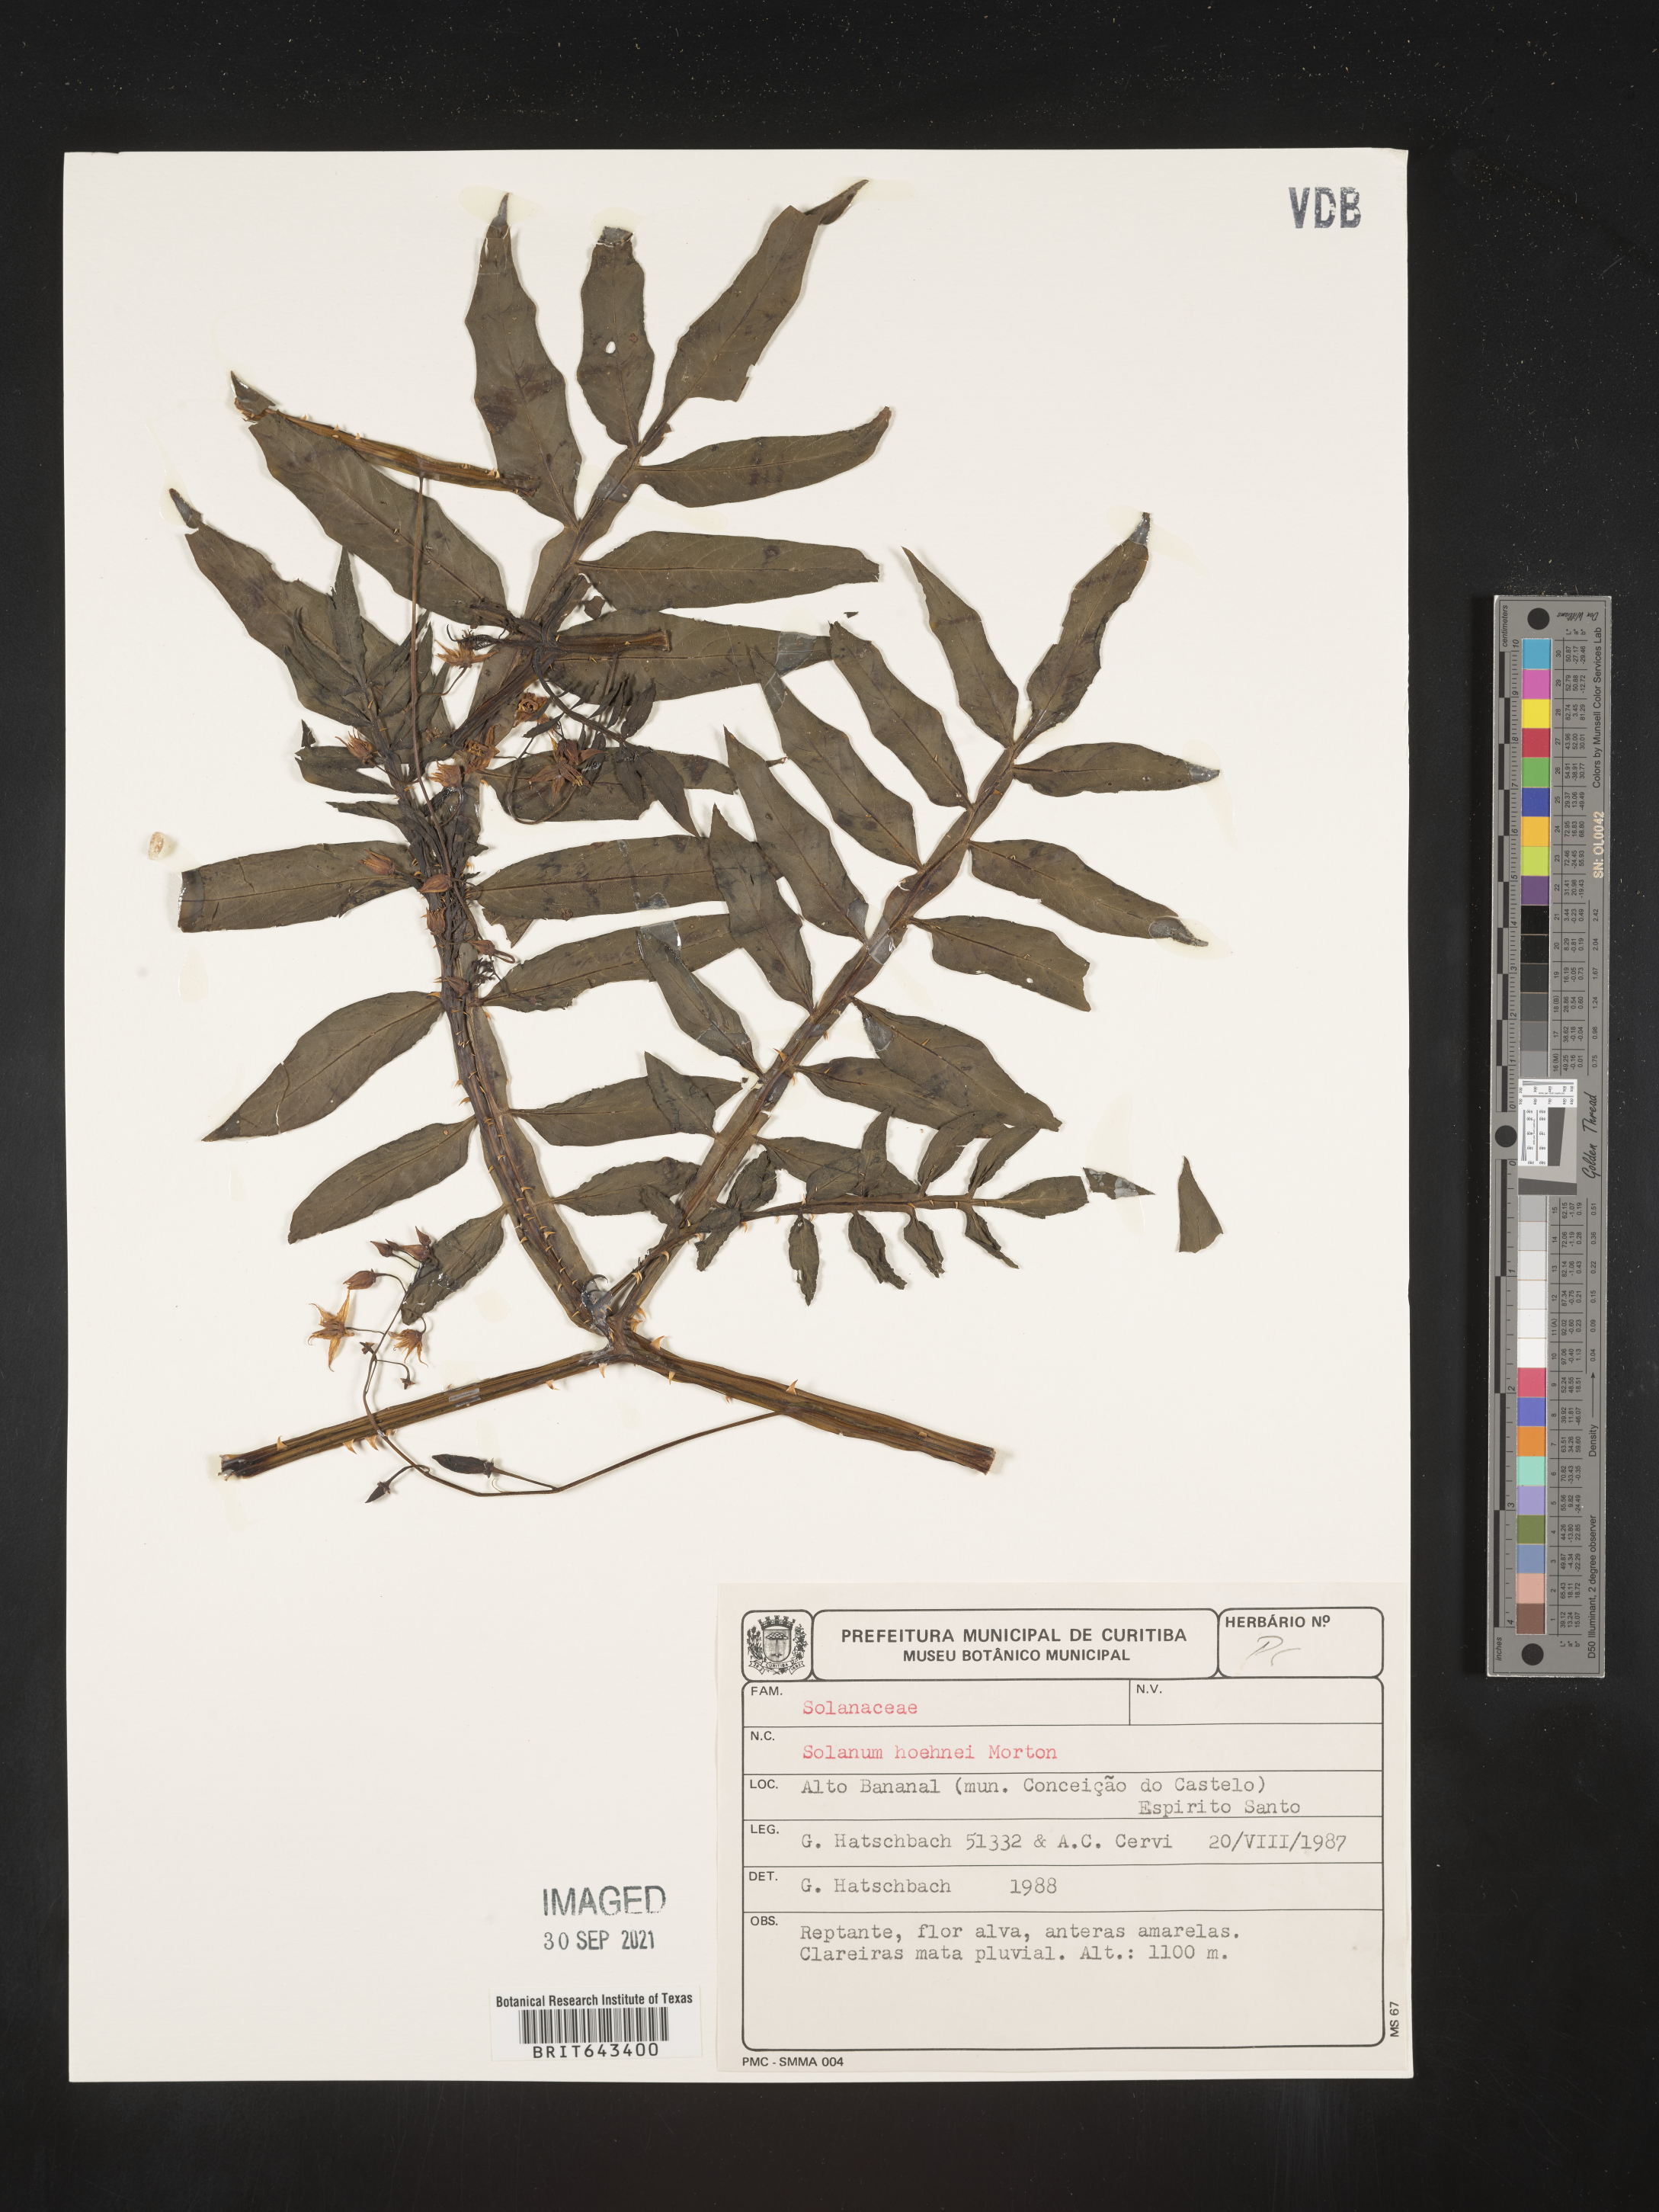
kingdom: Plantae
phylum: Tracheophyta
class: Magnoliopsida
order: Solanales
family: Solanaceae
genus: Solanum
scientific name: Solanum
